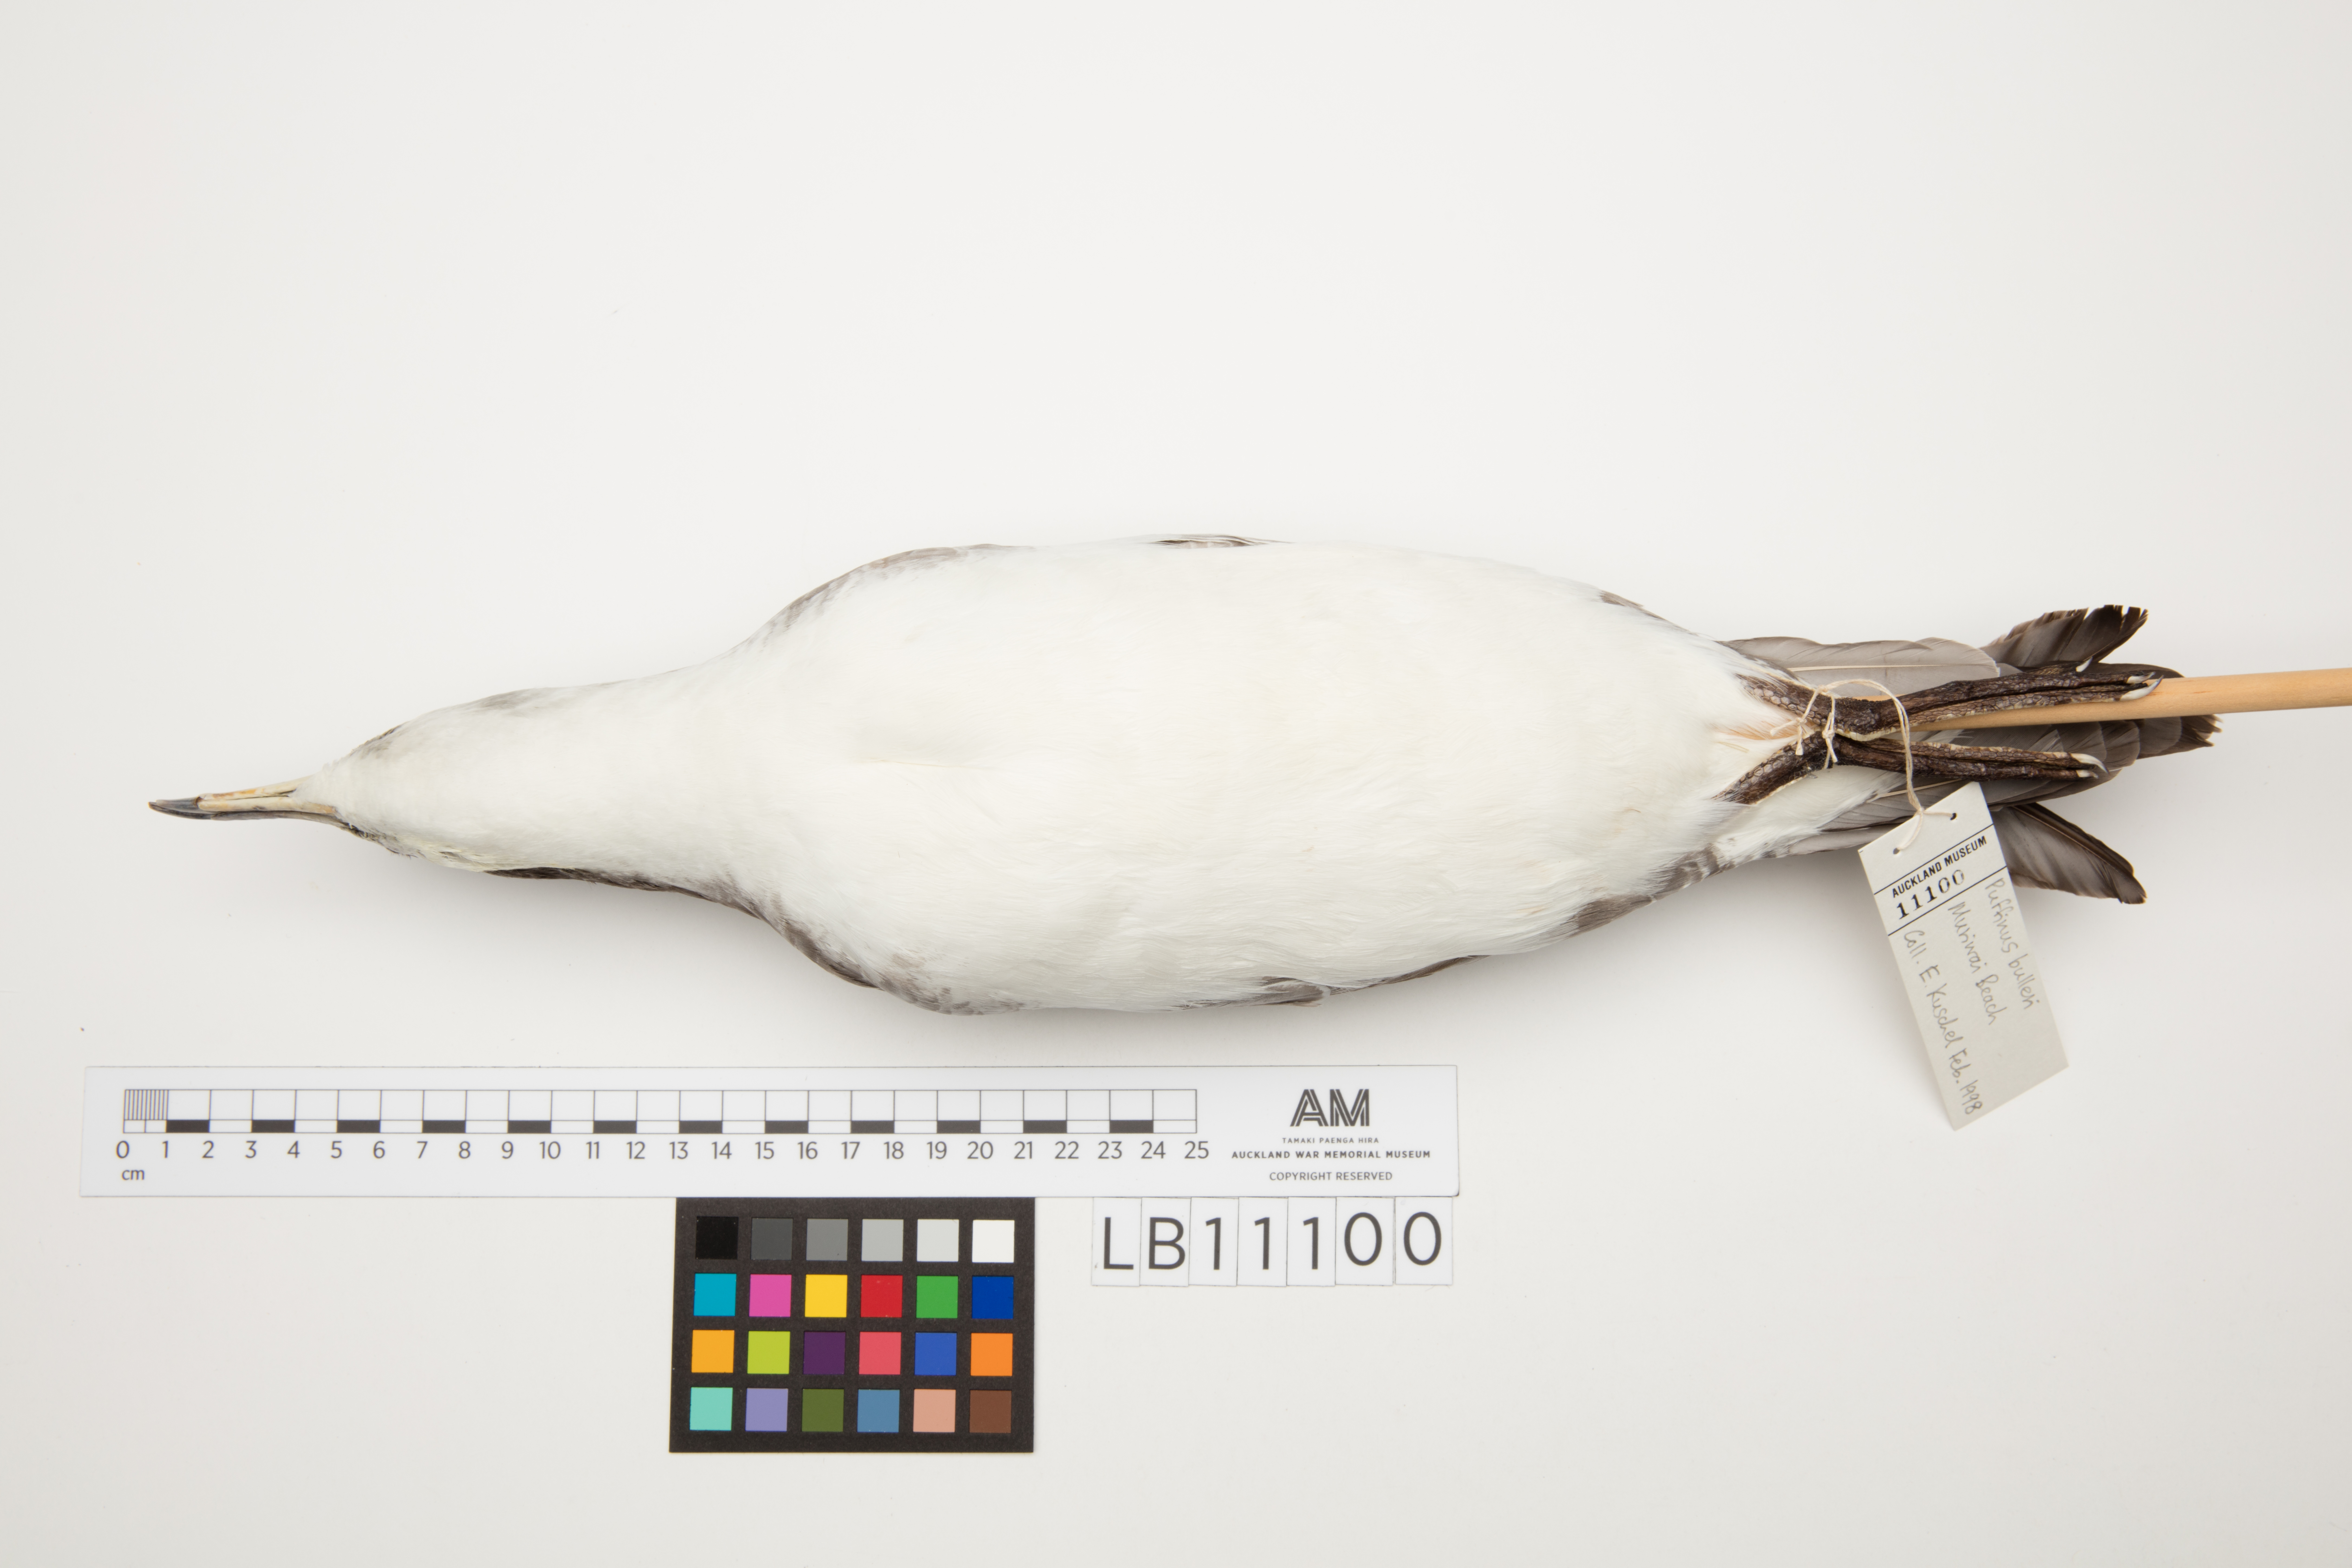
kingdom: Animalia
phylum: Chordata
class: Aves
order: Procellariiformes
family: Procellariidae
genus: Ardenna
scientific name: Ardenna
